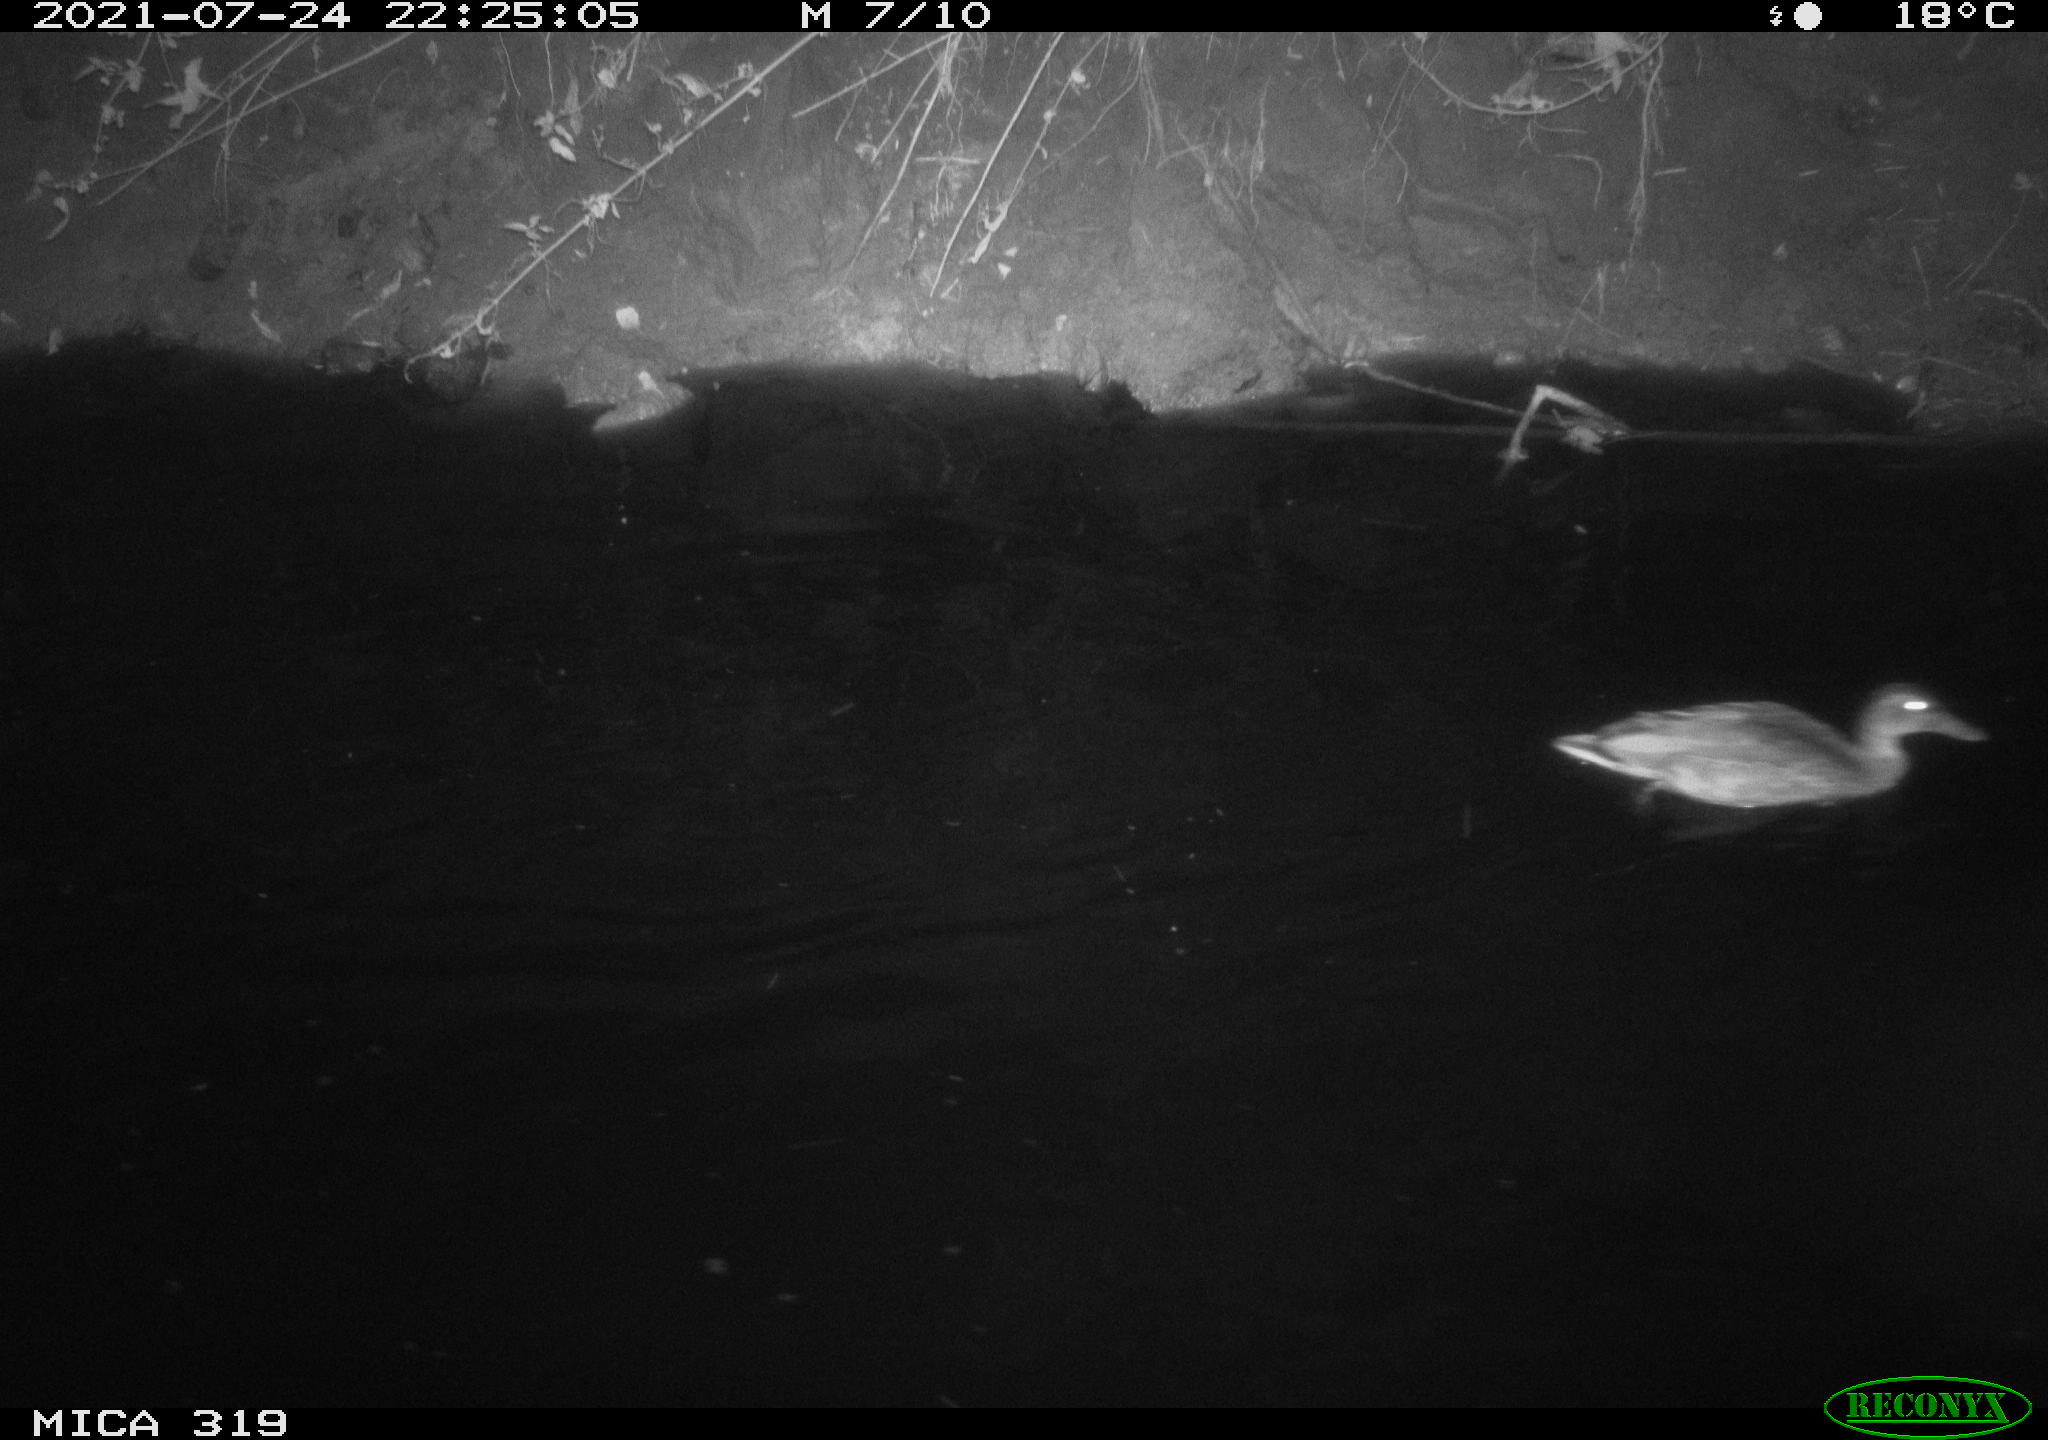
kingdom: Animalia
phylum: Chordata
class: Aves
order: Anseriformes
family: Anatidae
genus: Anas
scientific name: Anas platyrhynchos
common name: Mallard
